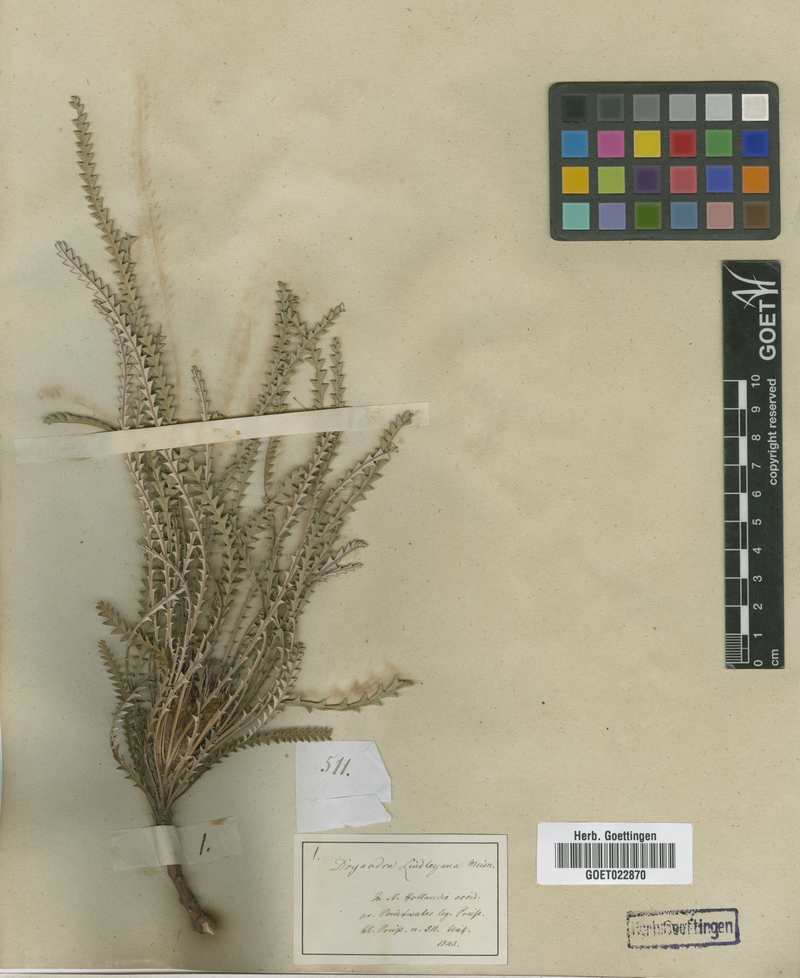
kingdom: Plantae
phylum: Tracheophyta
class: Magnoliopsida
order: Proteales
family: Proteaceae
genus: Banksia
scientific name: Banksia dallanneyi
